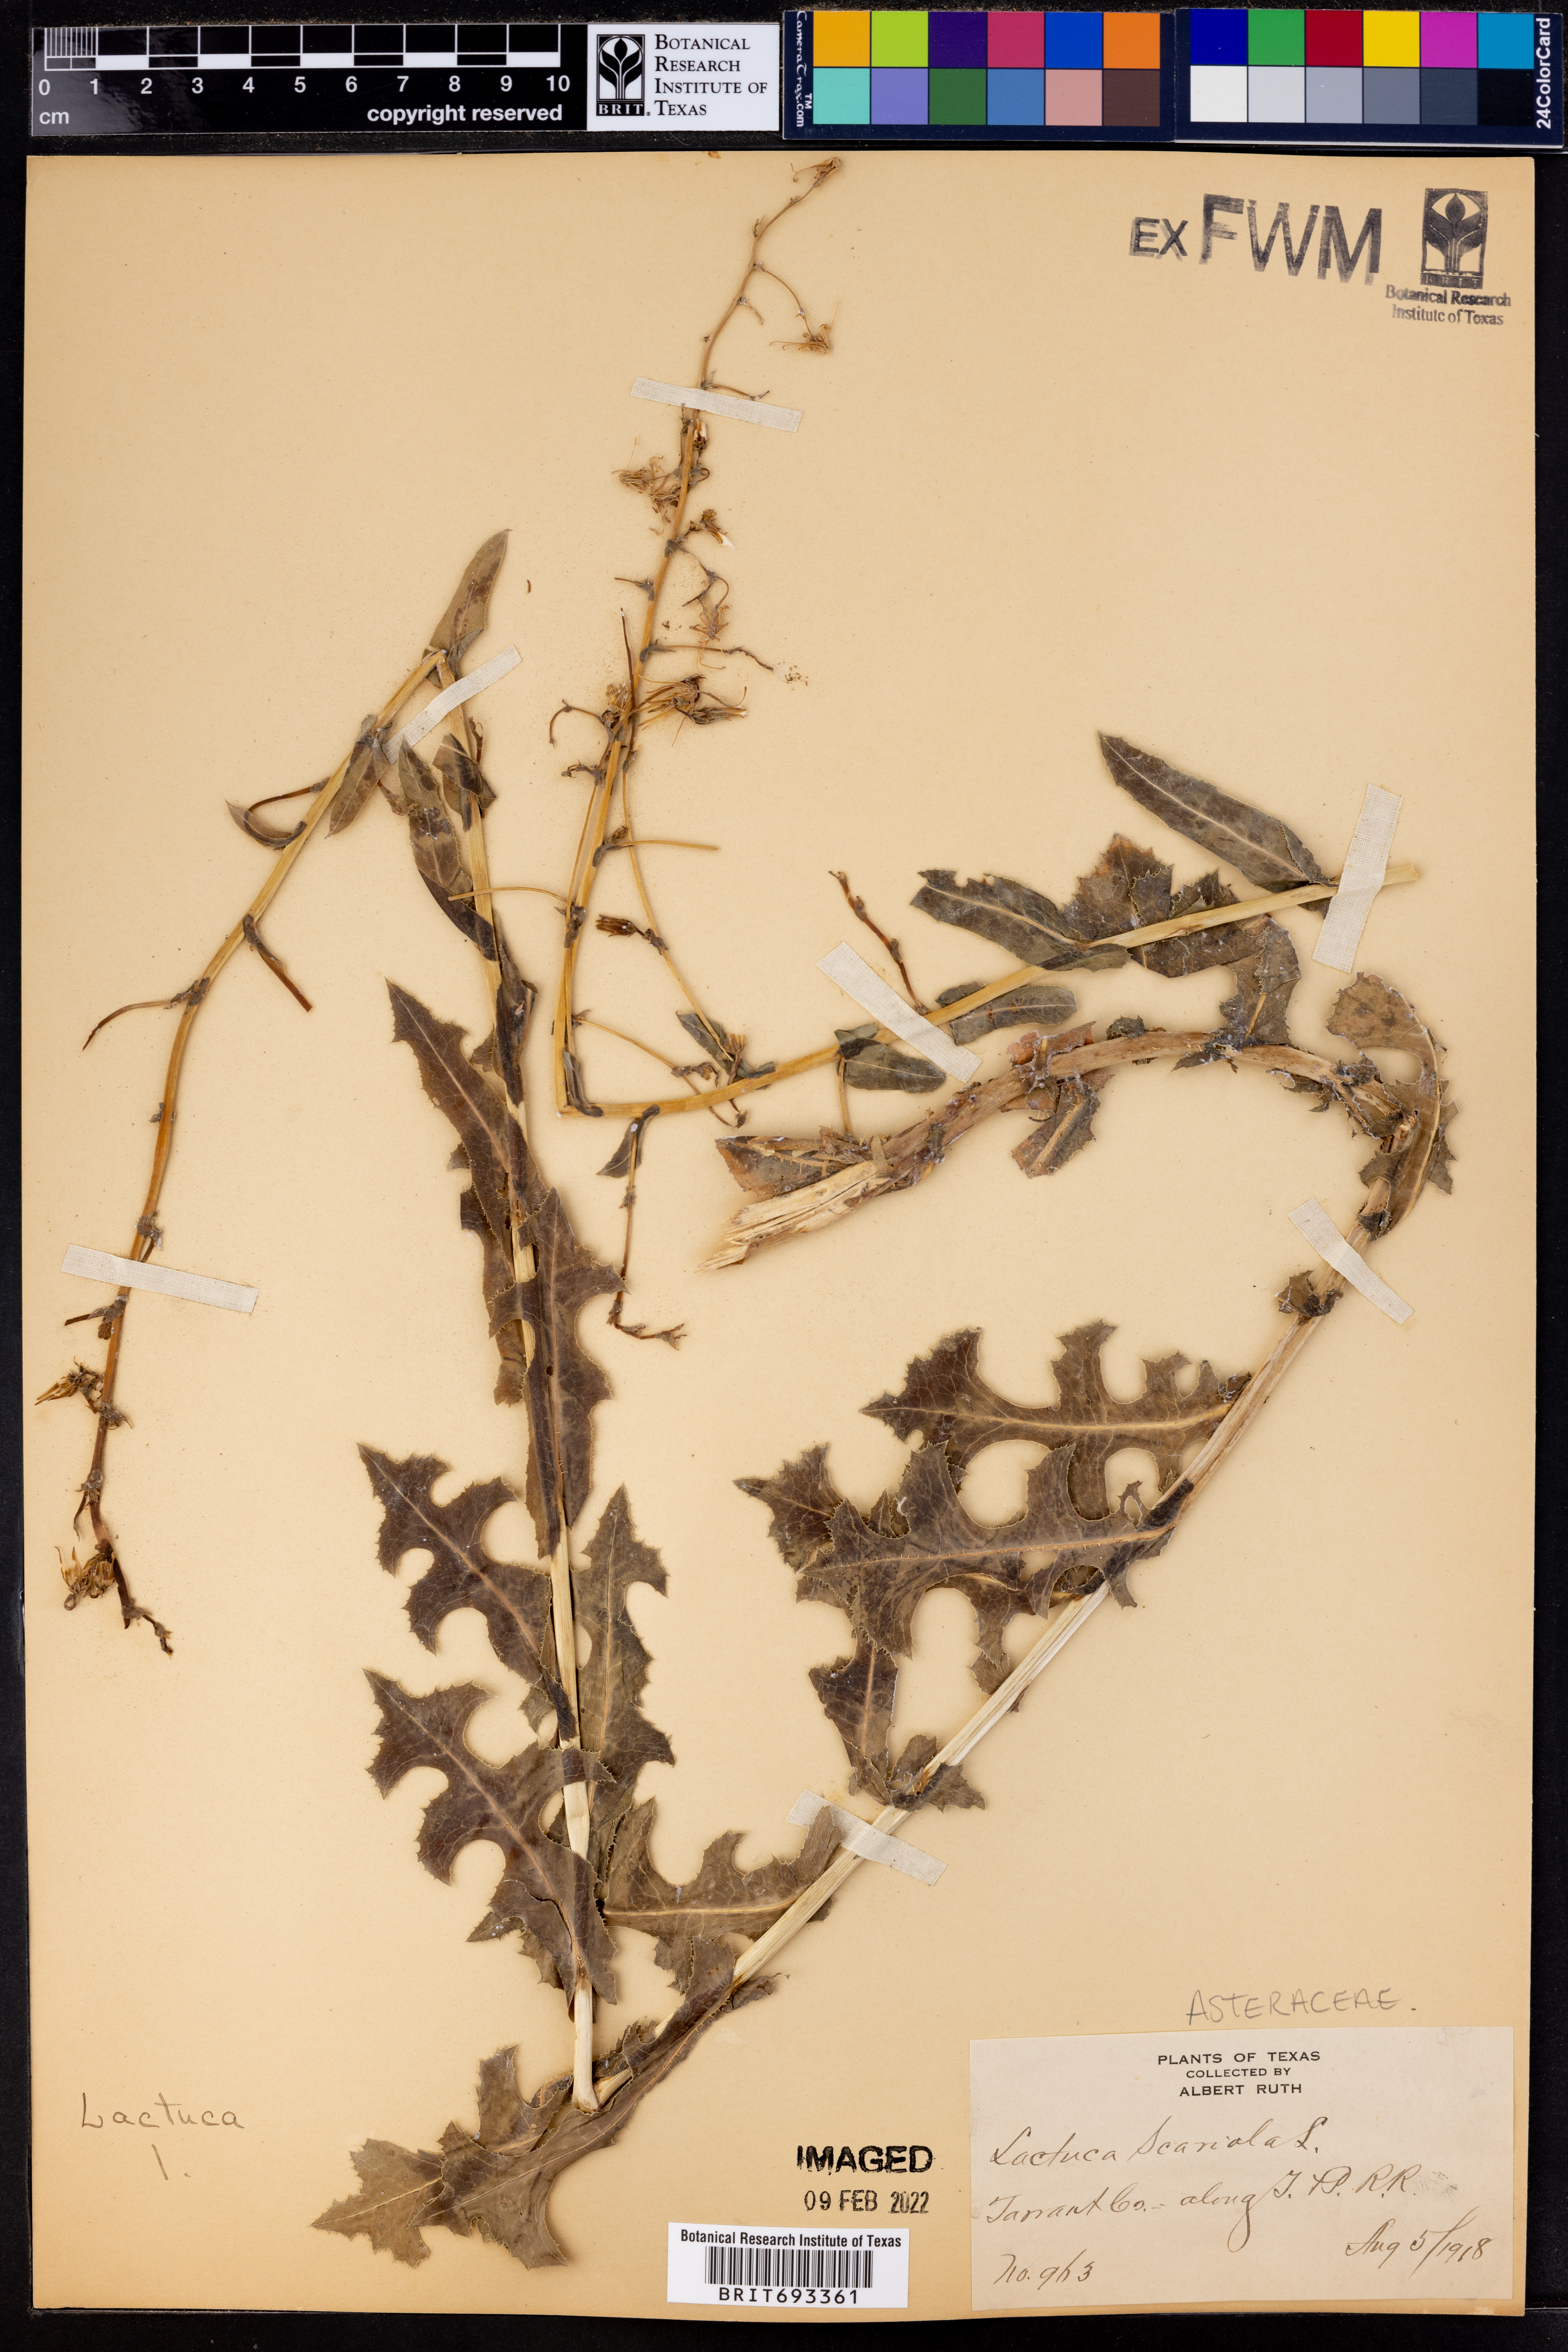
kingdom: Plantae
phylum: Tracheophyta
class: Magnoliopsida
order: Asterales
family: Asteraceae
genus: Lactuca
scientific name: Lactuca serriola
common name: Prickly lettuce
